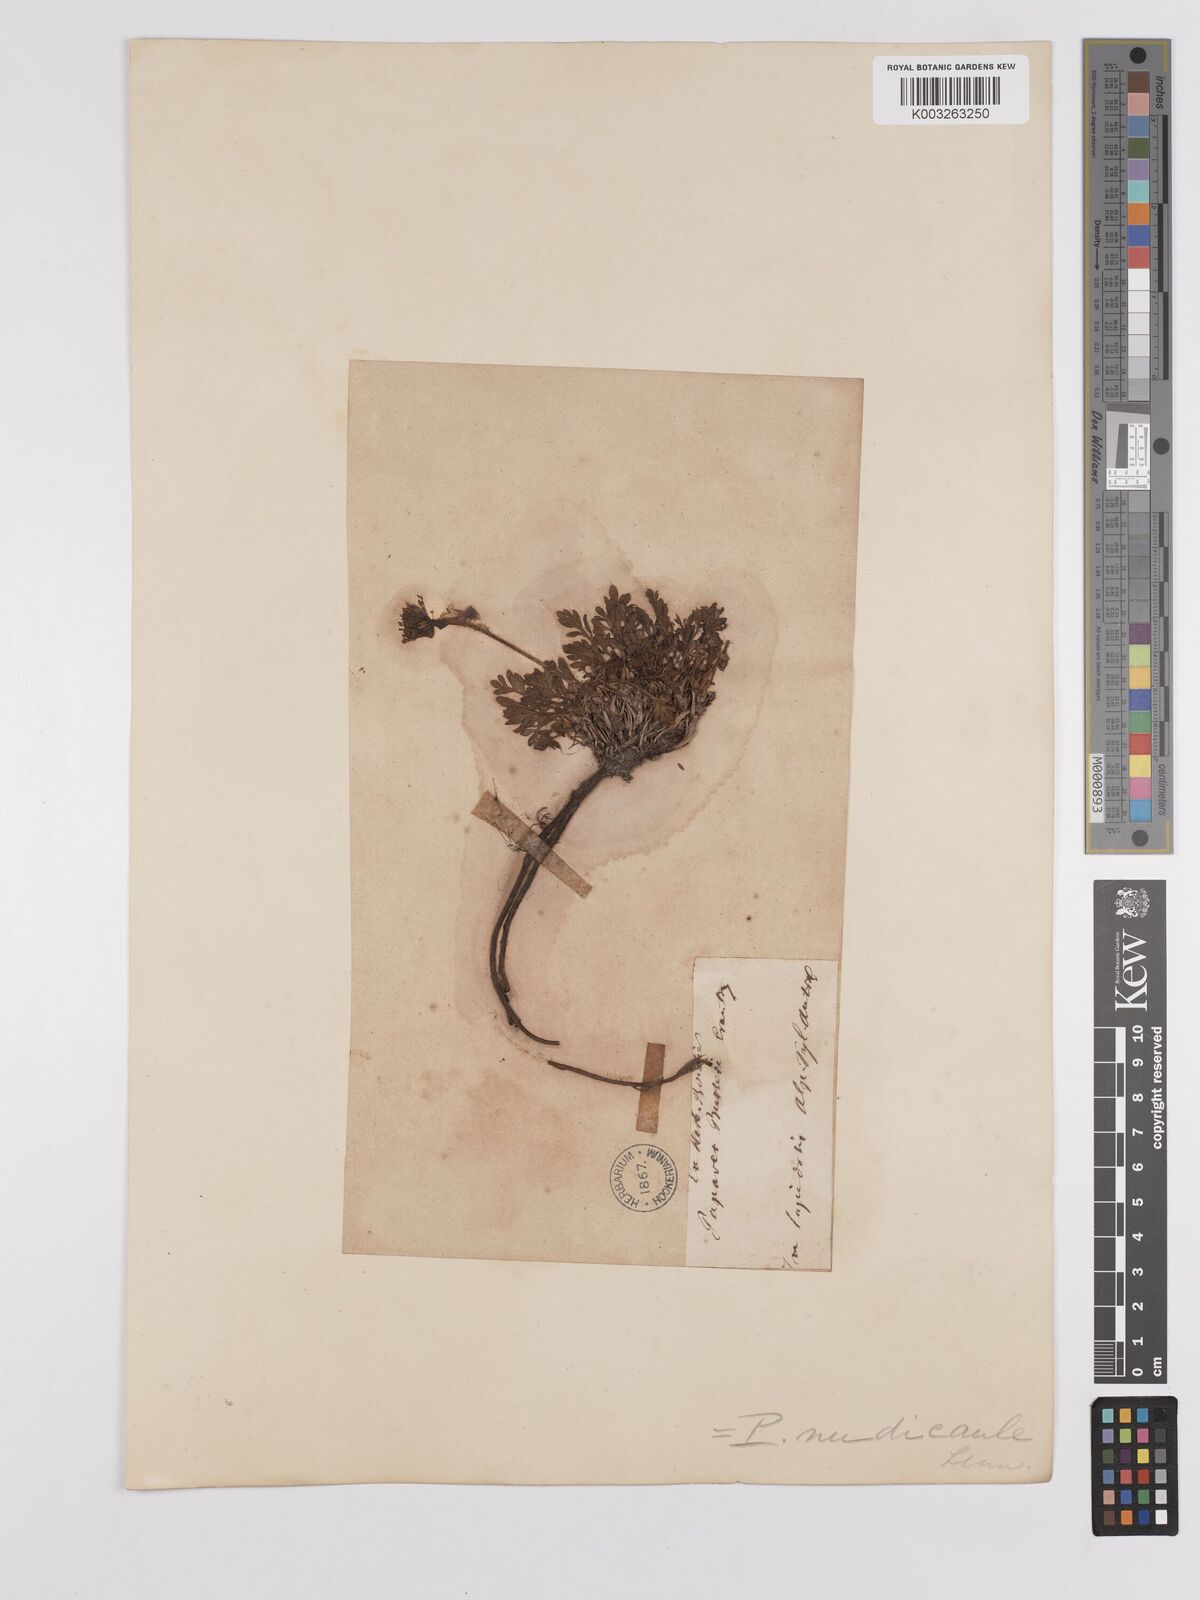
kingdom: Plantae
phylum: Tracheophyta
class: Magnoliopsida
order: Ranunculales
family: Papaveraceae
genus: Papaver
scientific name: Papaver radicatum
